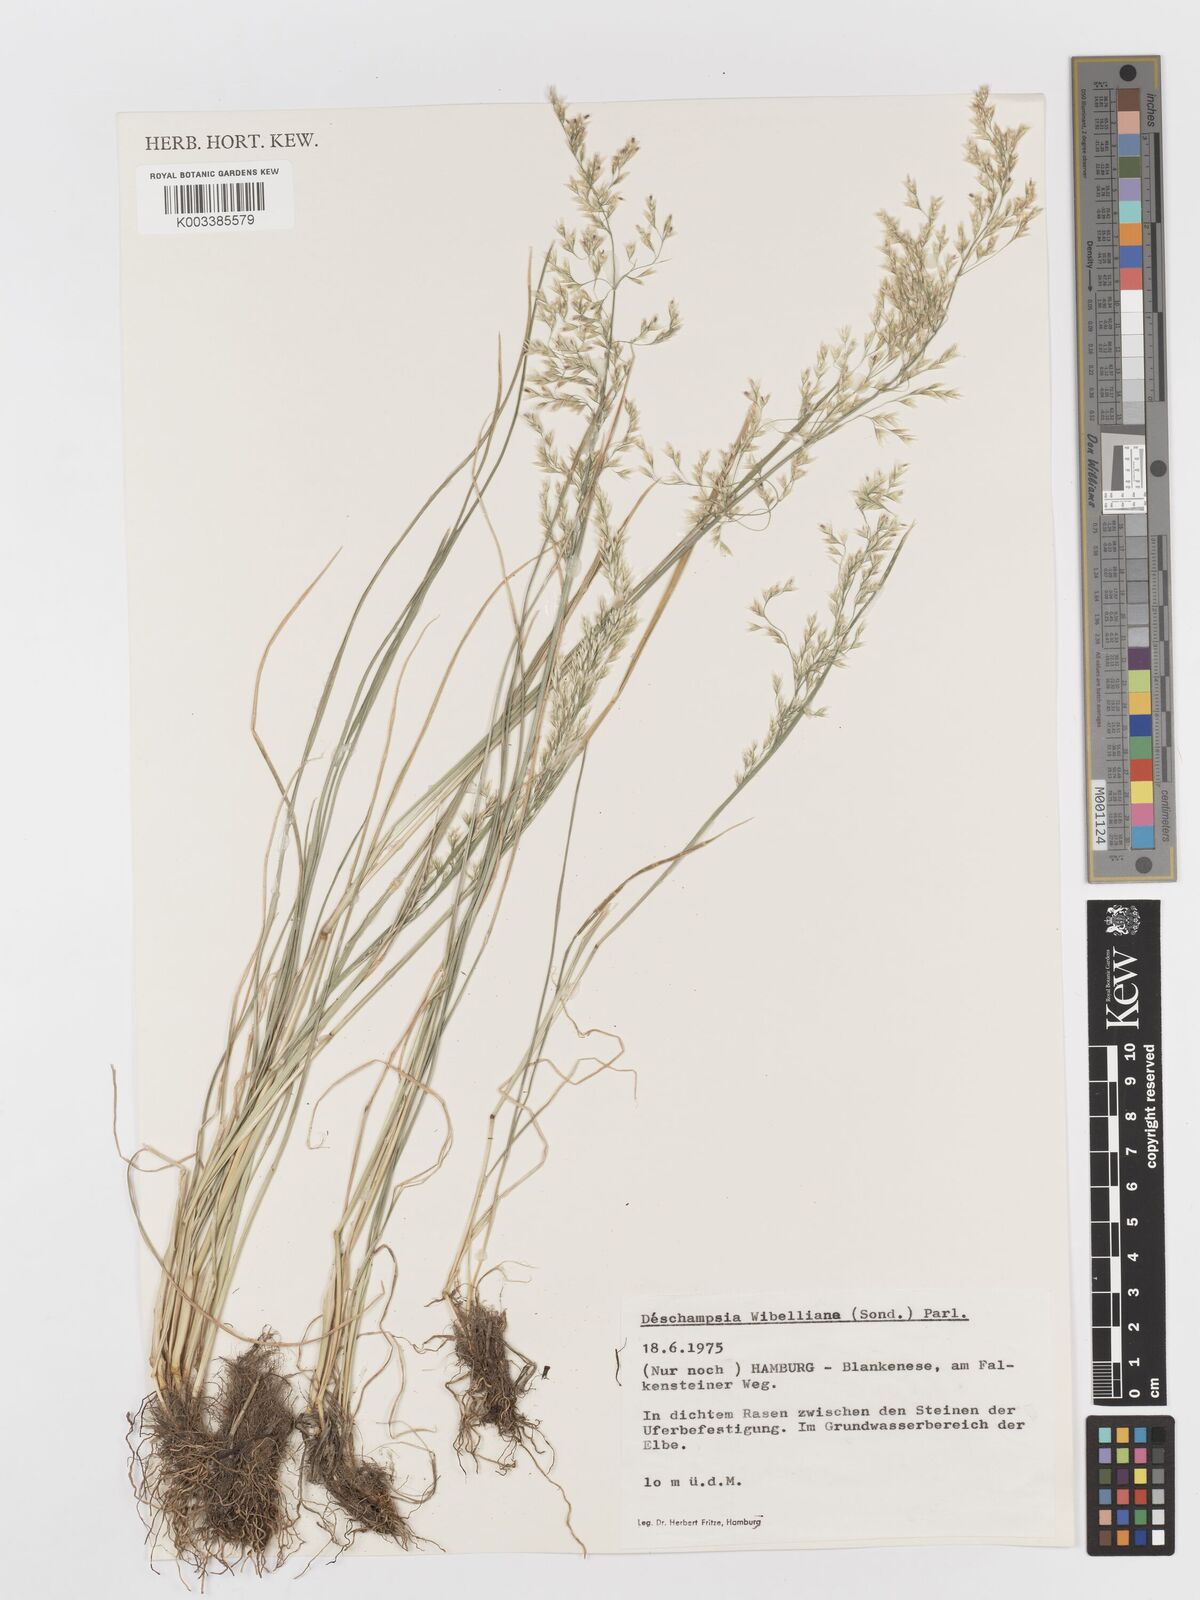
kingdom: Plantae
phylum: Tracheophyta
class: Liliopsida
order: Poales
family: Poaceae
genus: Deschampsia
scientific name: Deschampsia cespitosa
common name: Tufted hair-grass
